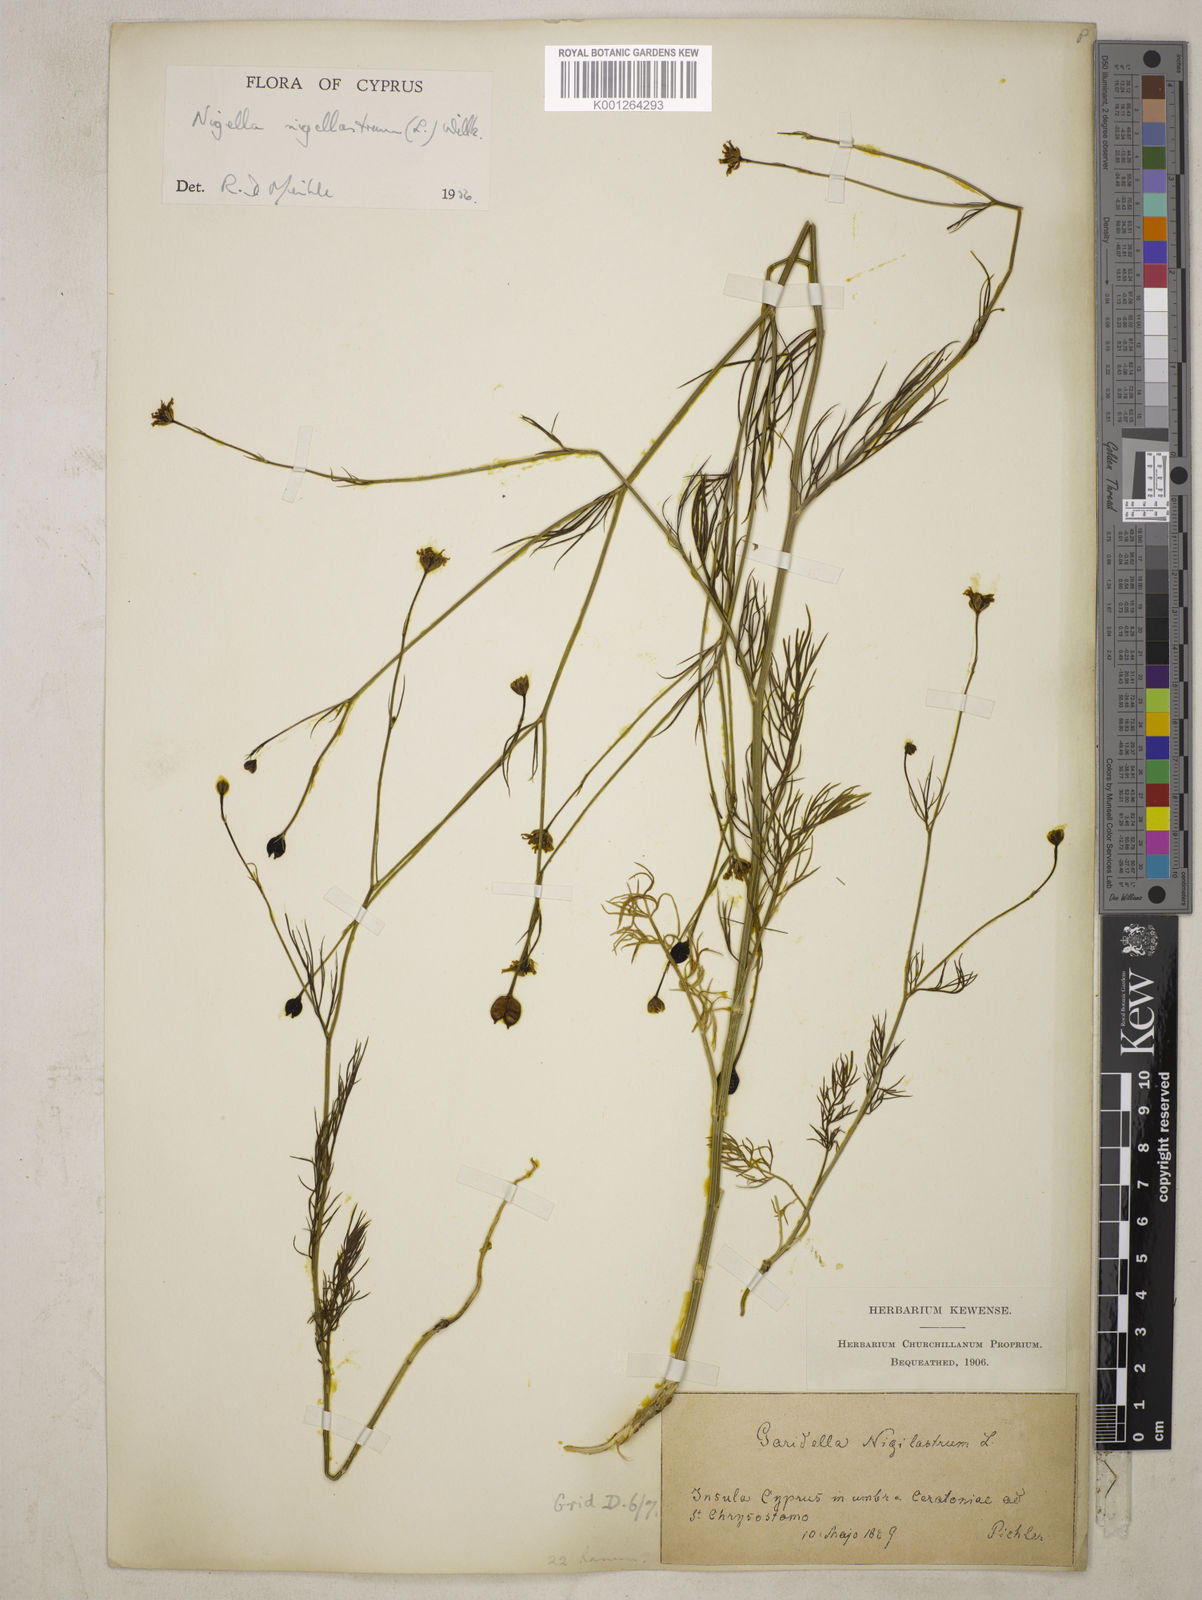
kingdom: Plantae
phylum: Tracheophyta
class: Magnoliopsida
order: Ranunculales
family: Ranunculaceae
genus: Garidella
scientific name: Garidella nigellastrum
